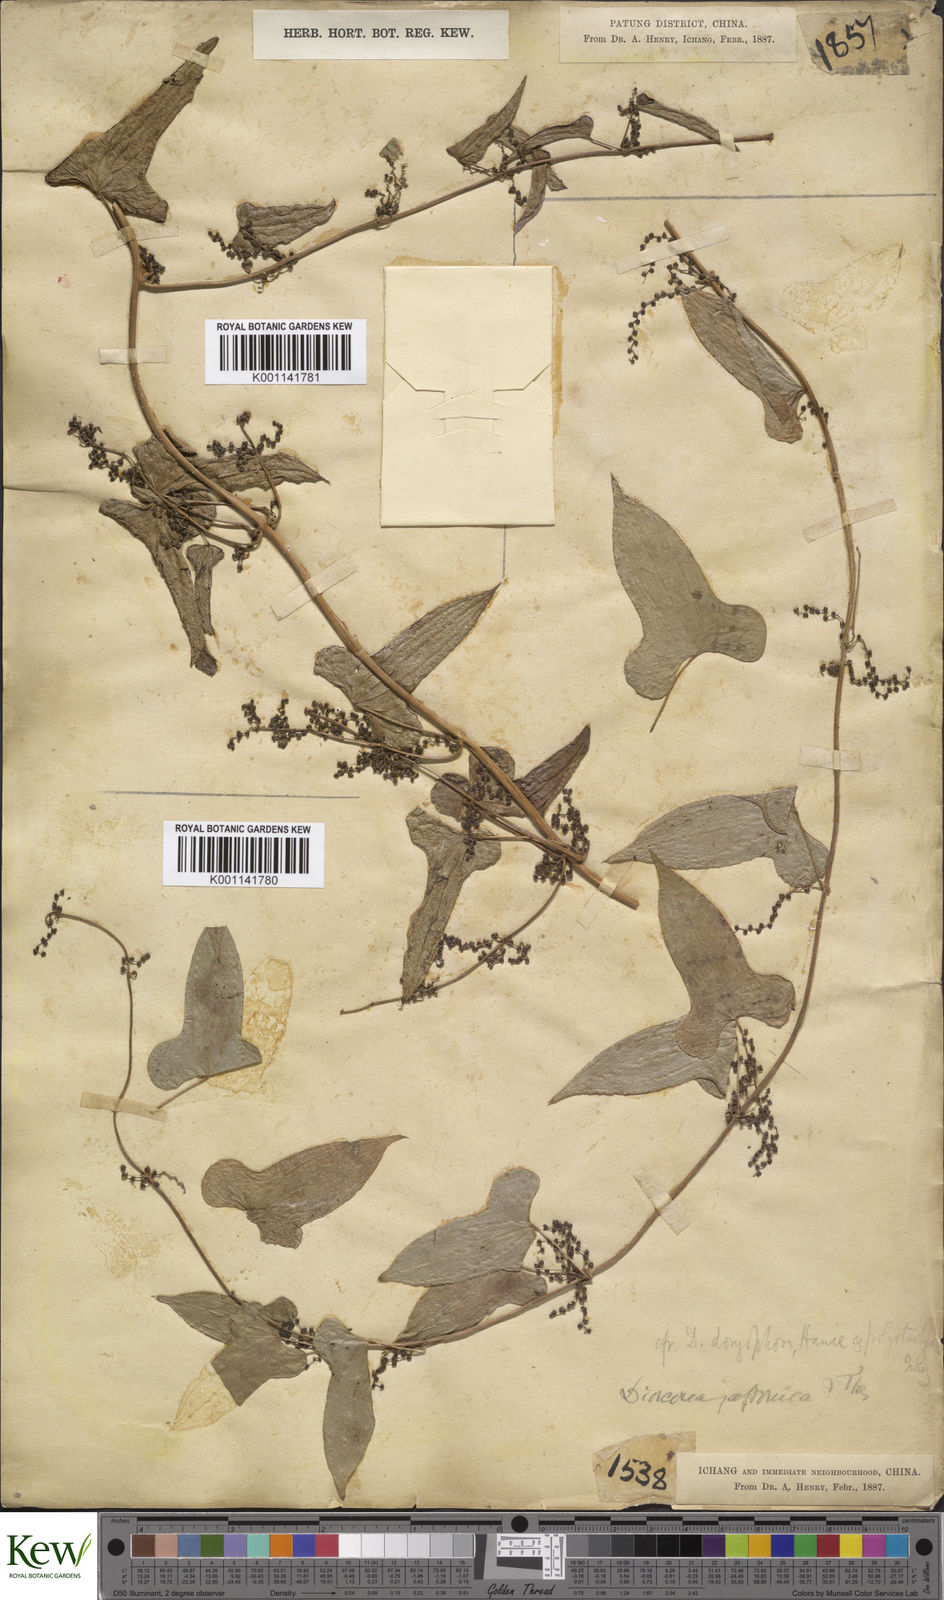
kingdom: Plantae
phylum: Tracheophyta
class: Liliopsida
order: Dioscoreales
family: Dioscoreaceae
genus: Dioscorea
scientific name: Dioscorea oppositifolia
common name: Chinese yam
